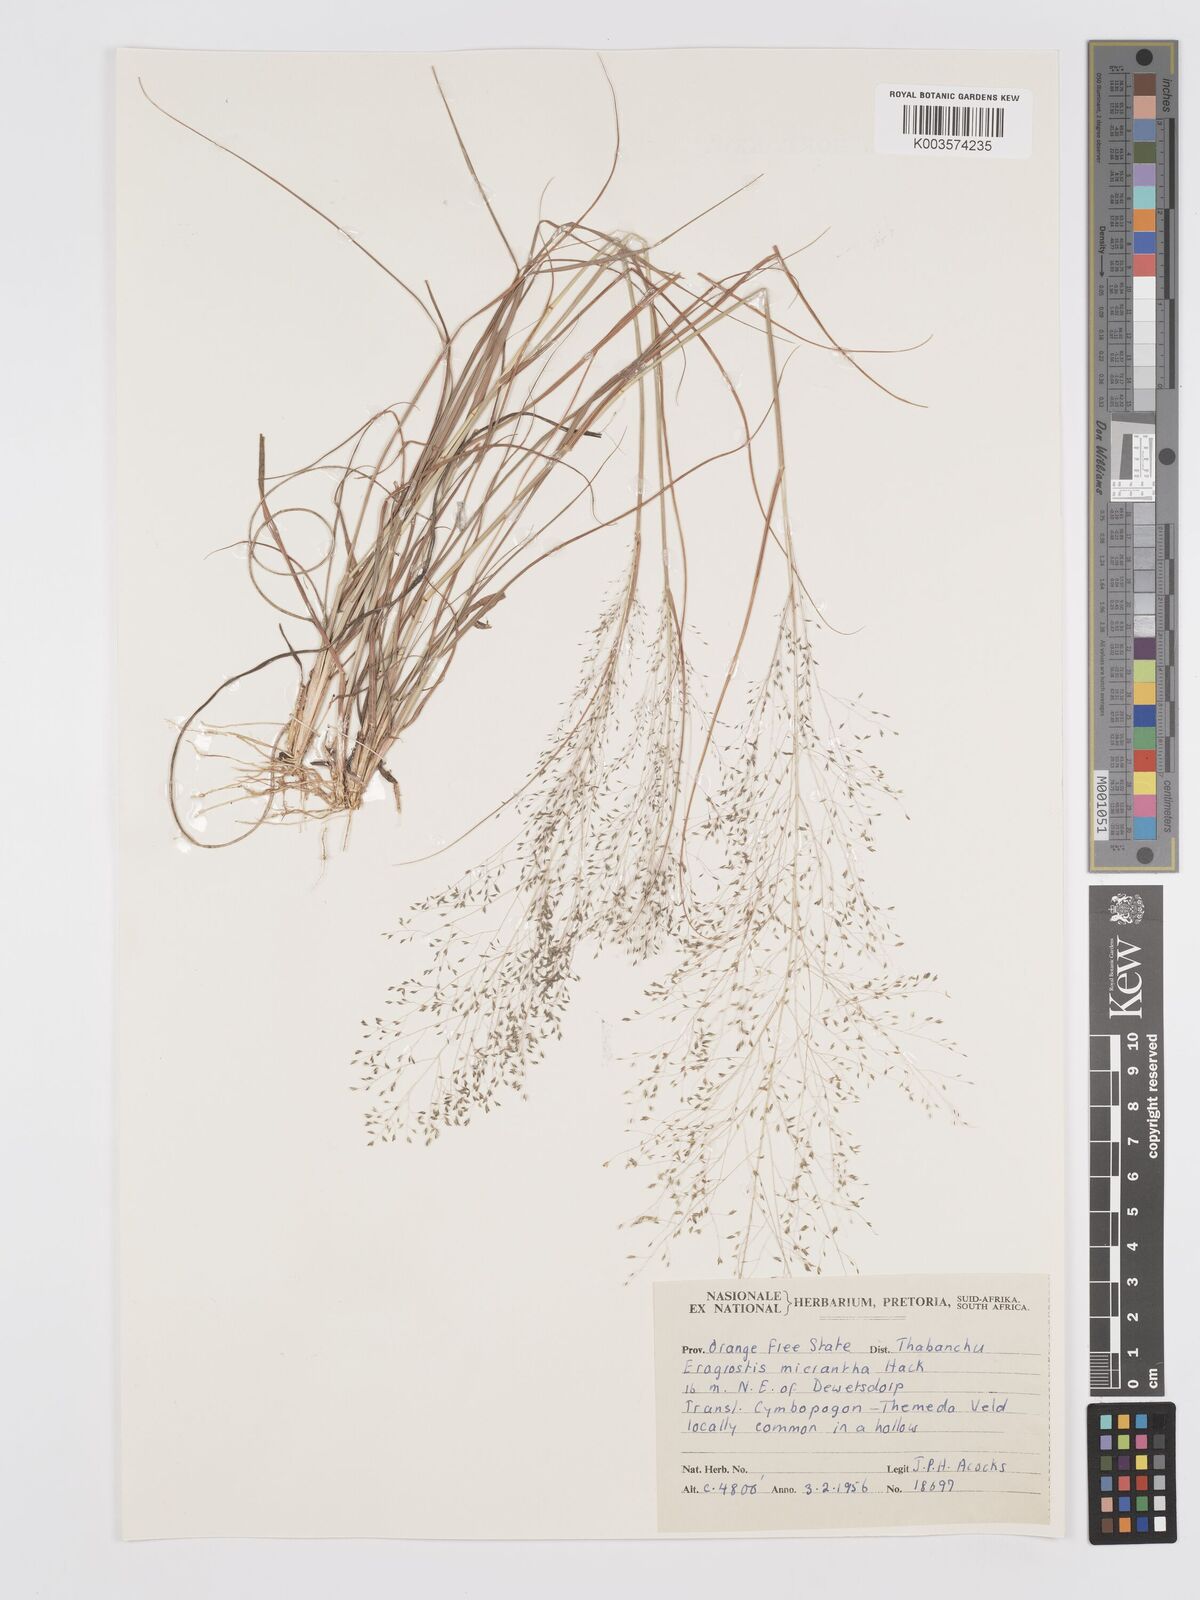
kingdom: Plantae
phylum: Tracheophyta
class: Liliopsida
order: Poales
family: Poaceae
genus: Eragrostis
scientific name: Eragrostis micrantha
